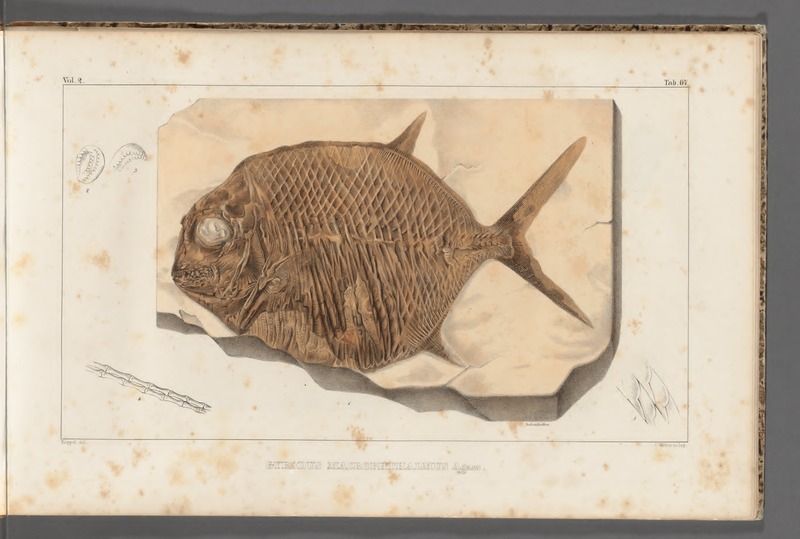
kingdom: Animalia
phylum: Chordata
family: Gyrodontidae
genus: Gyrodus
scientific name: Gyrodus hexagonus
